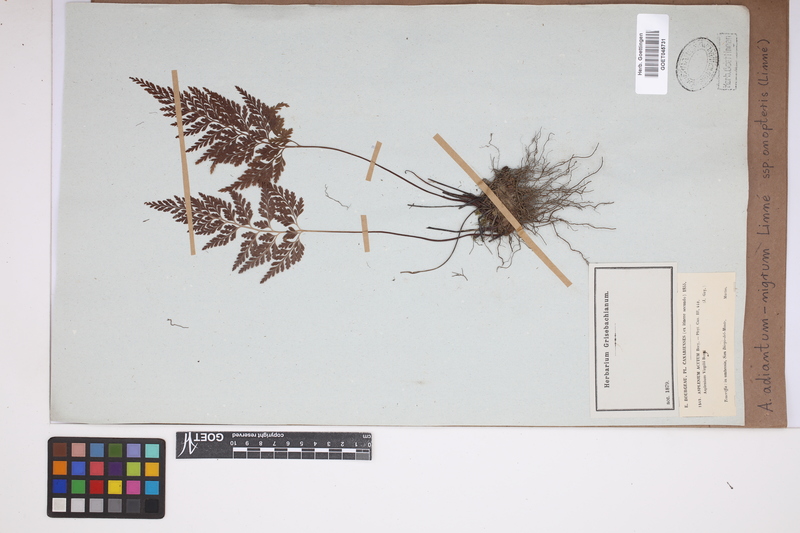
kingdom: Plantae
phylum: Tracheophyta
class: Polypodiopsida
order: Polypodiales
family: Aspleniaceae
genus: Asplenium
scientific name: Asplenium onopteris
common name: Irish spleenwort
